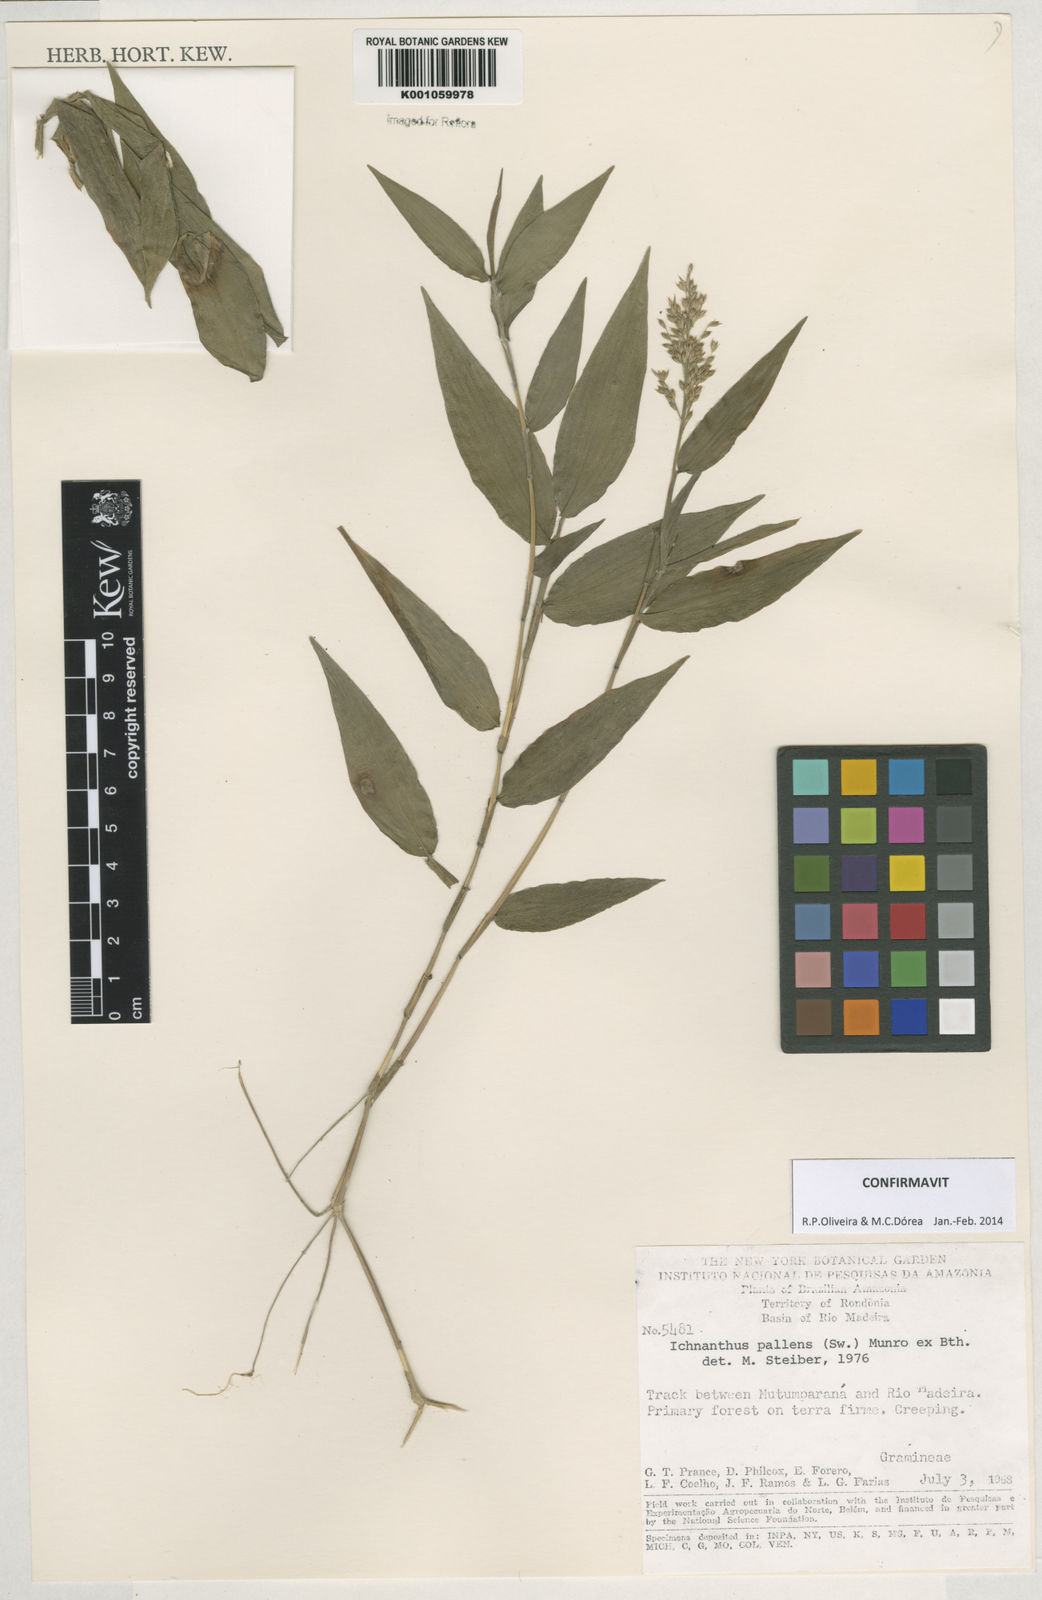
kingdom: Plantae
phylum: Tracheophyta
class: Liliopsida
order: Poales
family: Poaceae
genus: Ichnanthus
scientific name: Ichnanthus pallens
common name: Water grass
